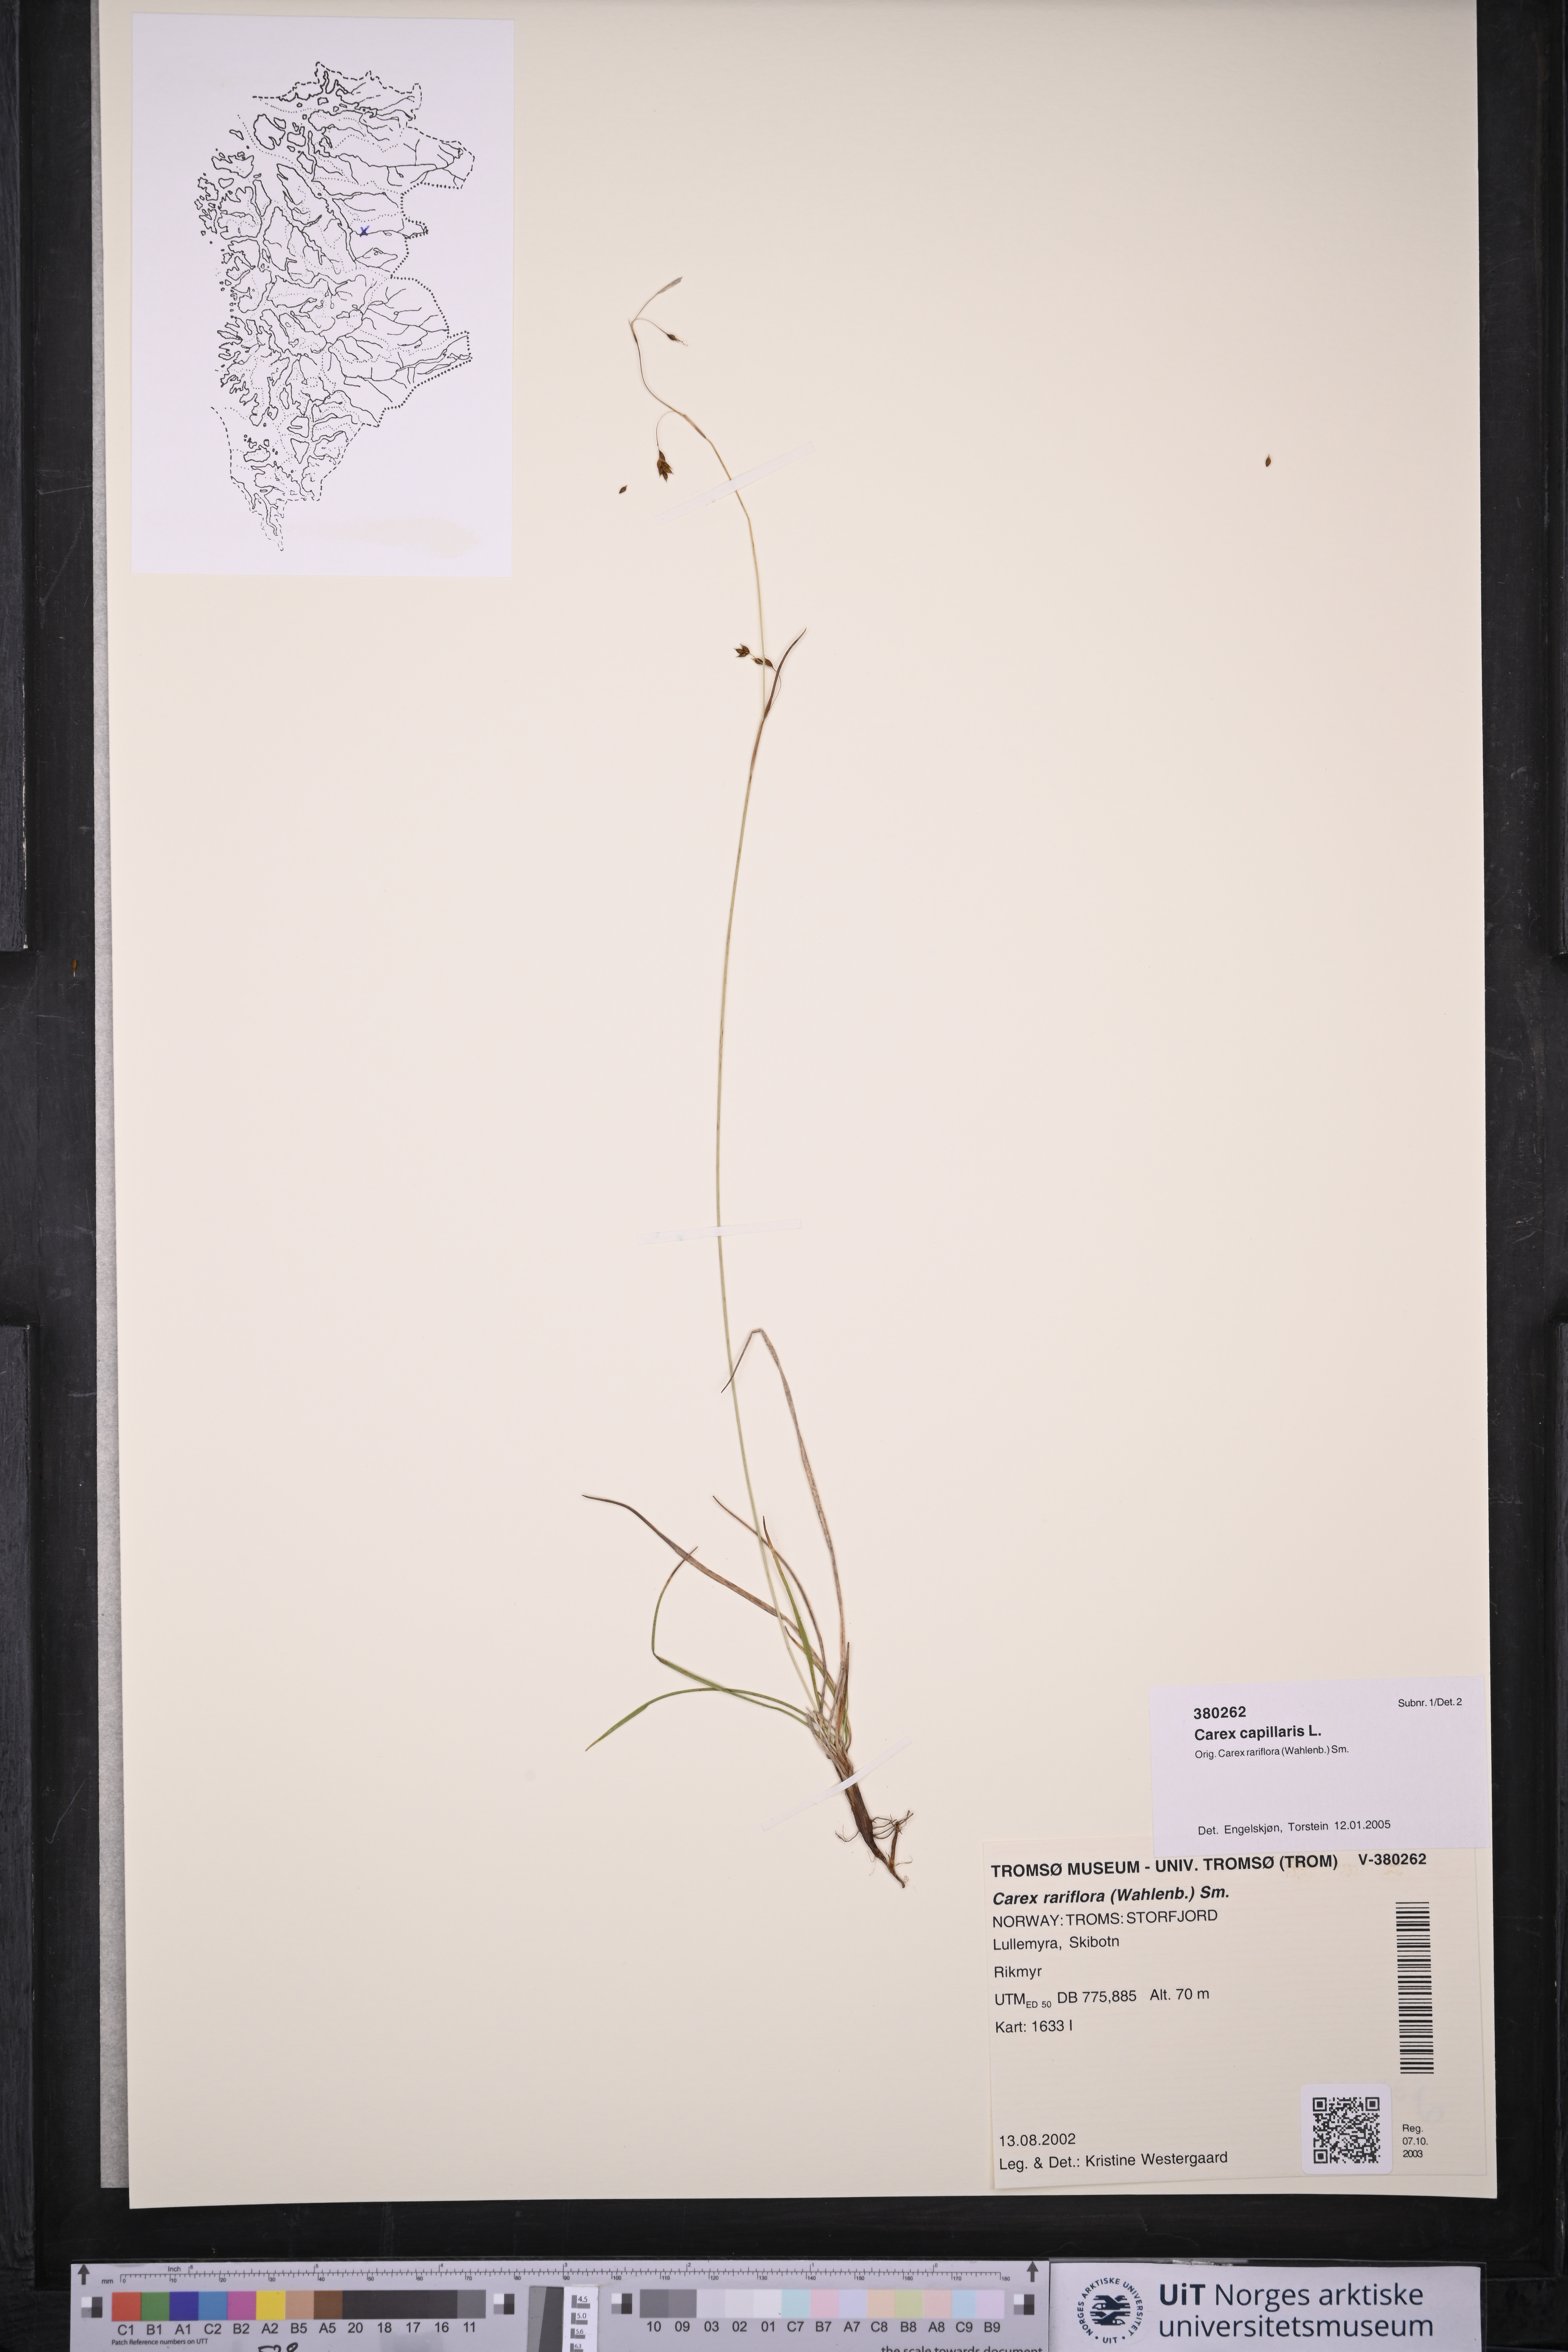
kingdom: Plantae
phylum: Tracheophyta
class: Liliopsida
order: Poales
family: Cyperaceae
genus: Carex
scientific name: Carex capillaris
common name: Hair sedge
